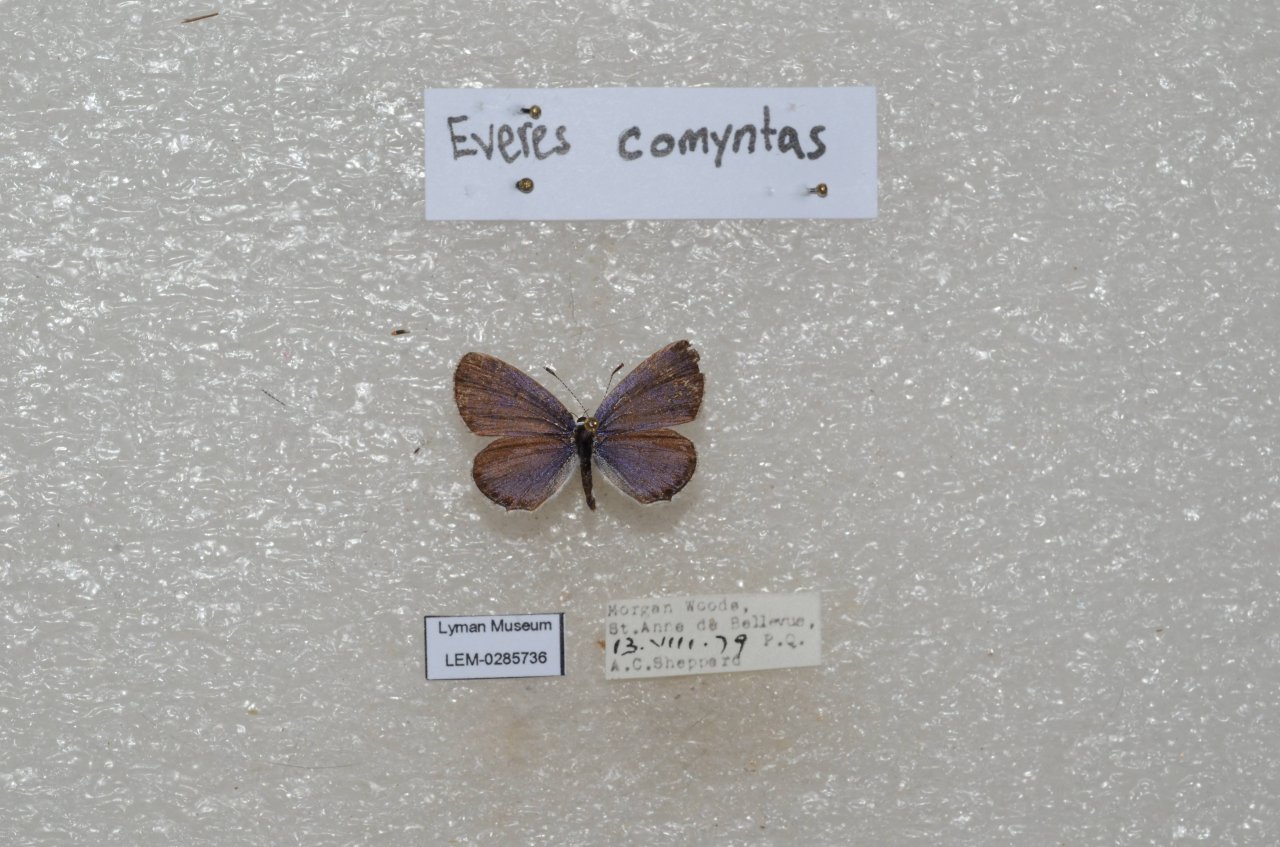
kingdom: Animalia
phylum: Arthropoda
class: Insecta
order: Lepidoptera
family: Lycaenidae
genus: Elkalyce
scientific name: Elkalyce comyntas
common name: Eastern Tailed-Blue
